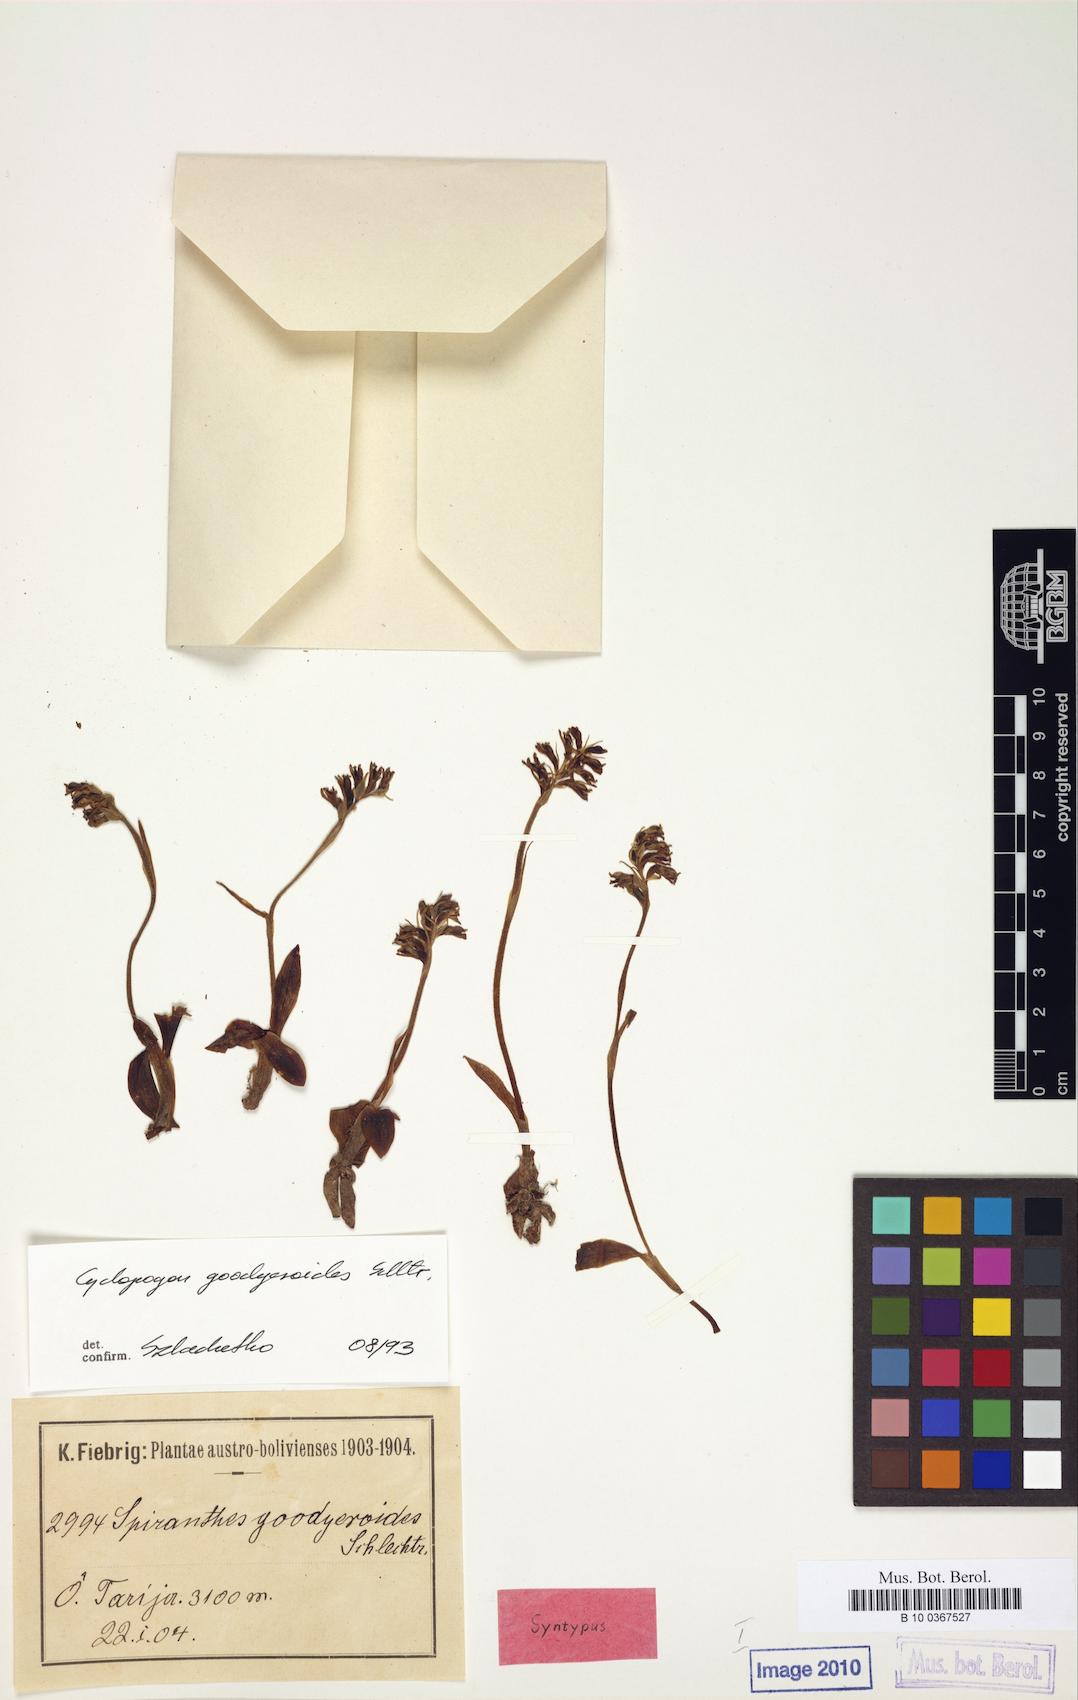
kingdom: Plantae
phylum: Tracheophyta
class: Liliopsida
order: Asparagales
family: Orchidaceae
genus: Cyclopogon
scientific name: Cyclopogon goodyeroides
